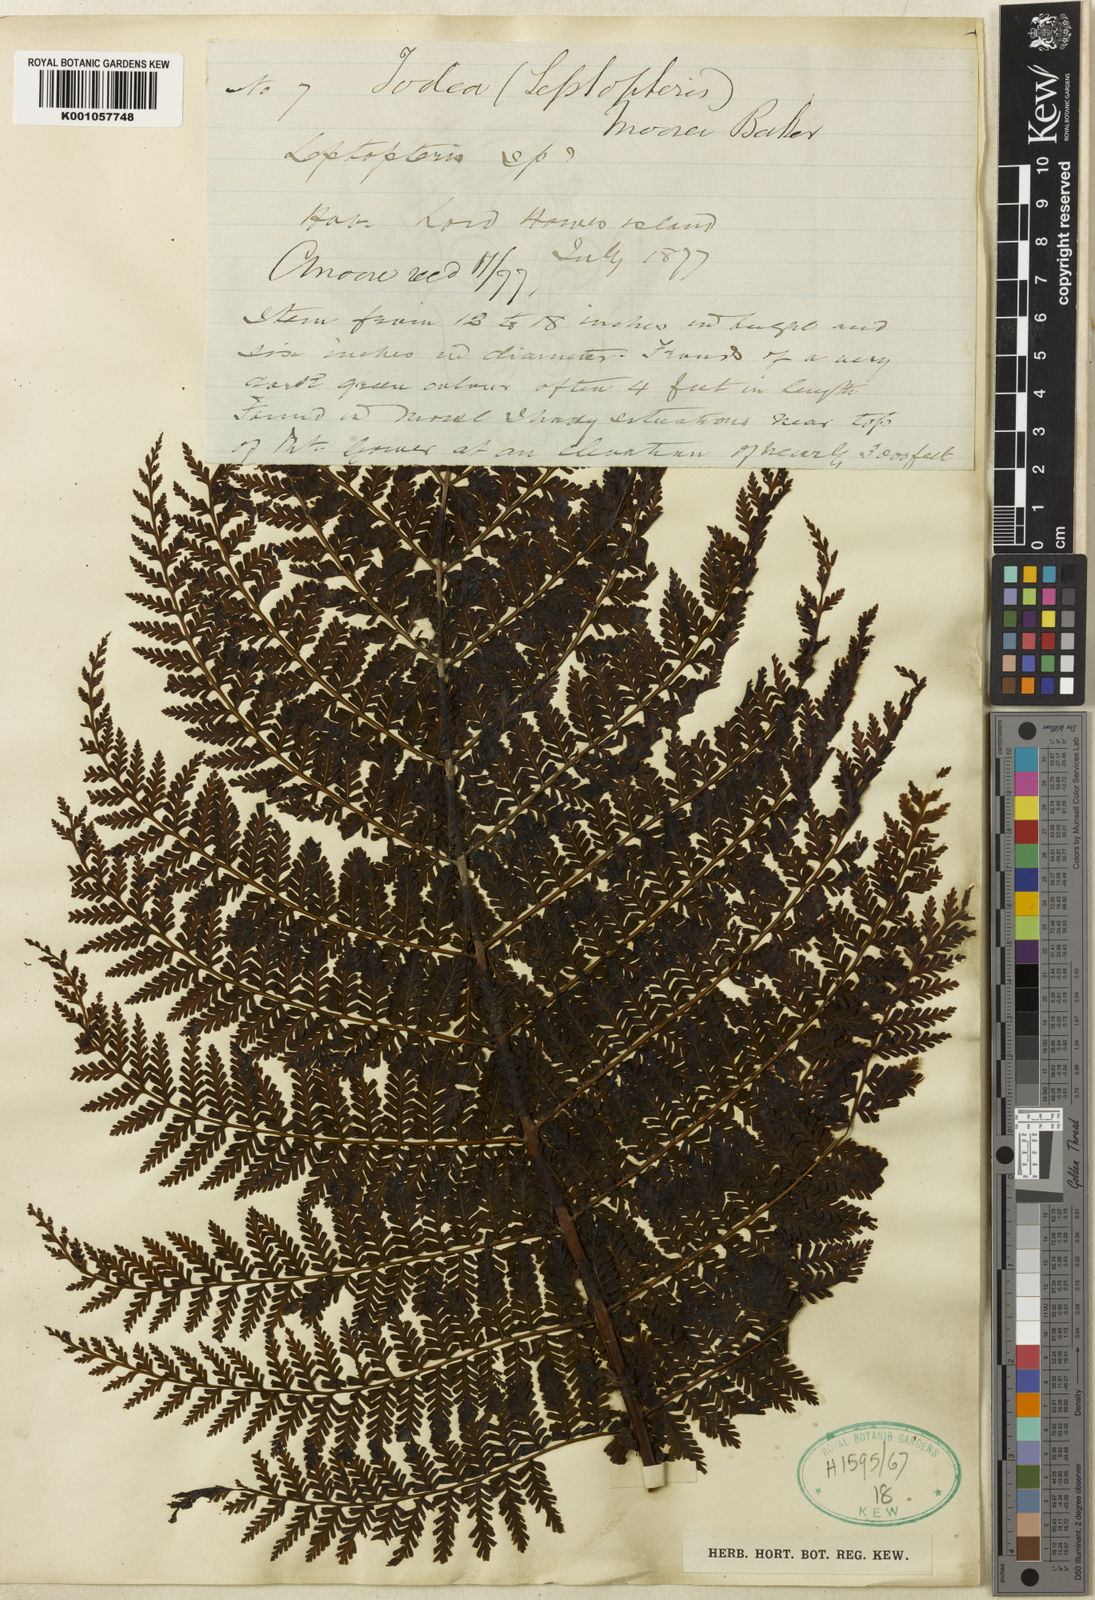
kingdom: Plantae
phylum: Tracheophyta
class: Polypodiopsida
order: Osmundales
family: Osmundaceae
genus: Leptopteris
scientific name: Leptopteris moorei
